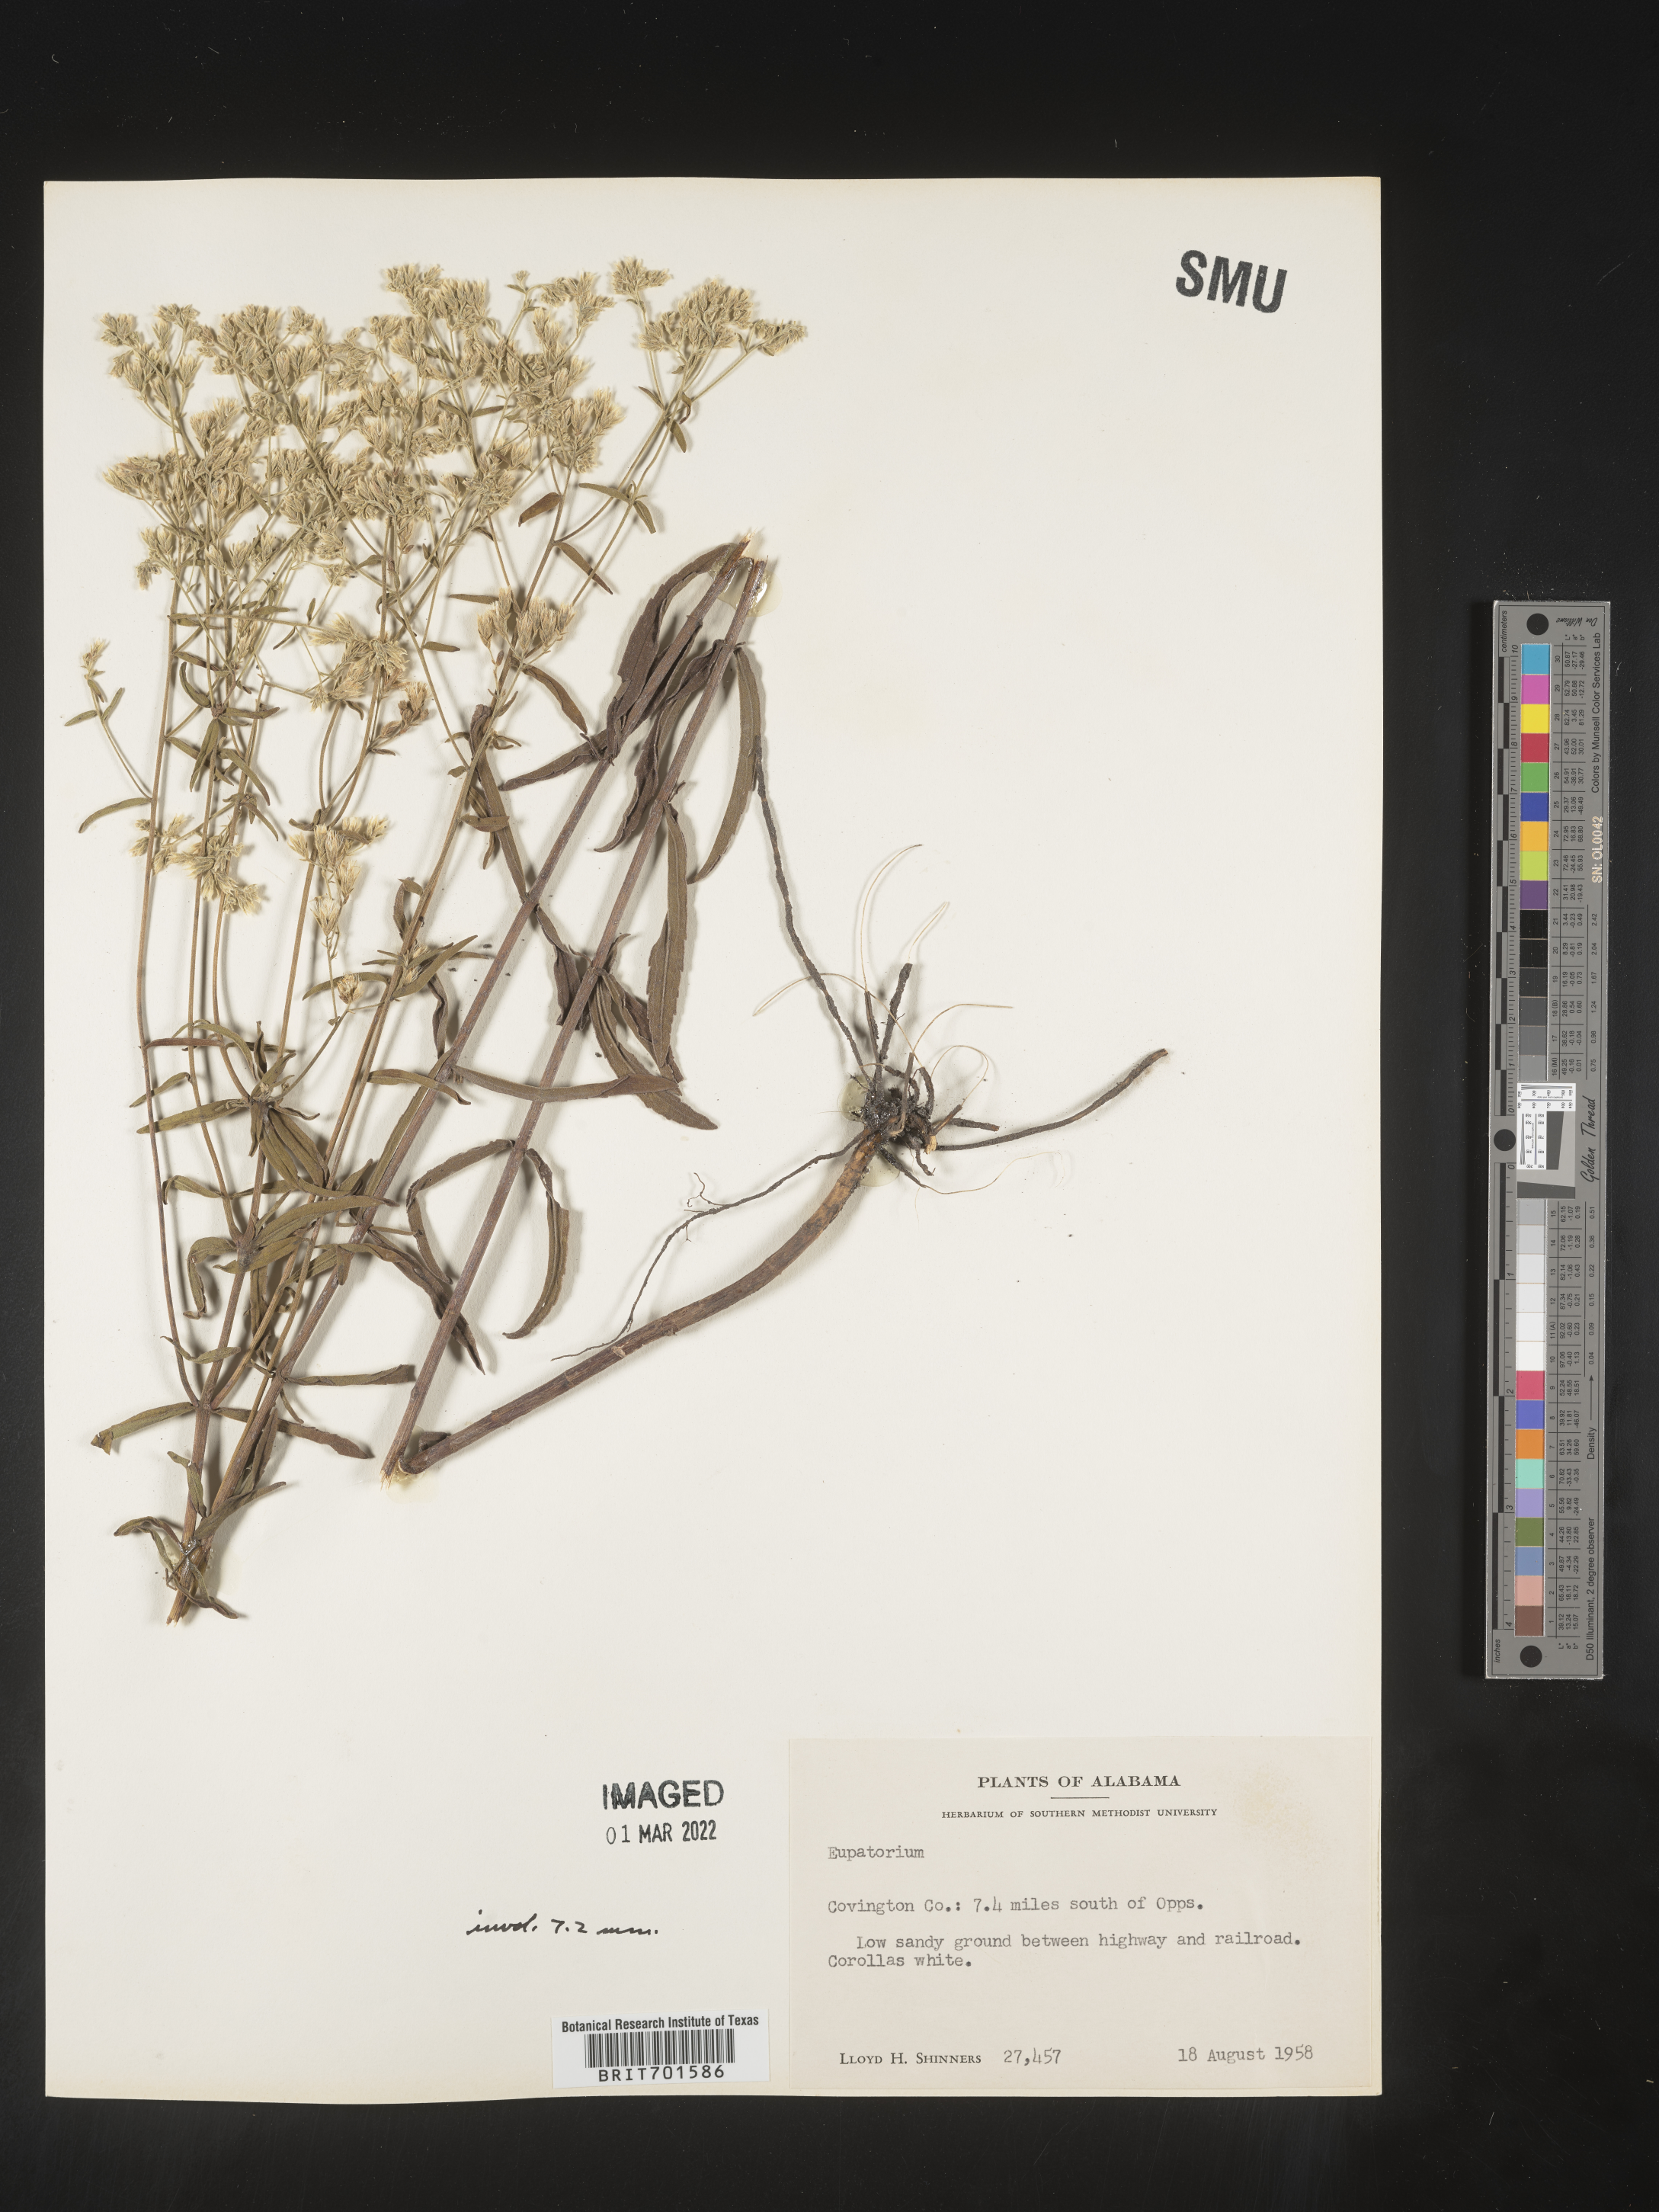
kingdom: Plantae
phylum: Tracheophyta
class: Magnoliopsida
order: Asterales
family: Asteraceae
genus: Eupatorium
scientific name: Eupatorium leucolepis
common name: Justiceweed
